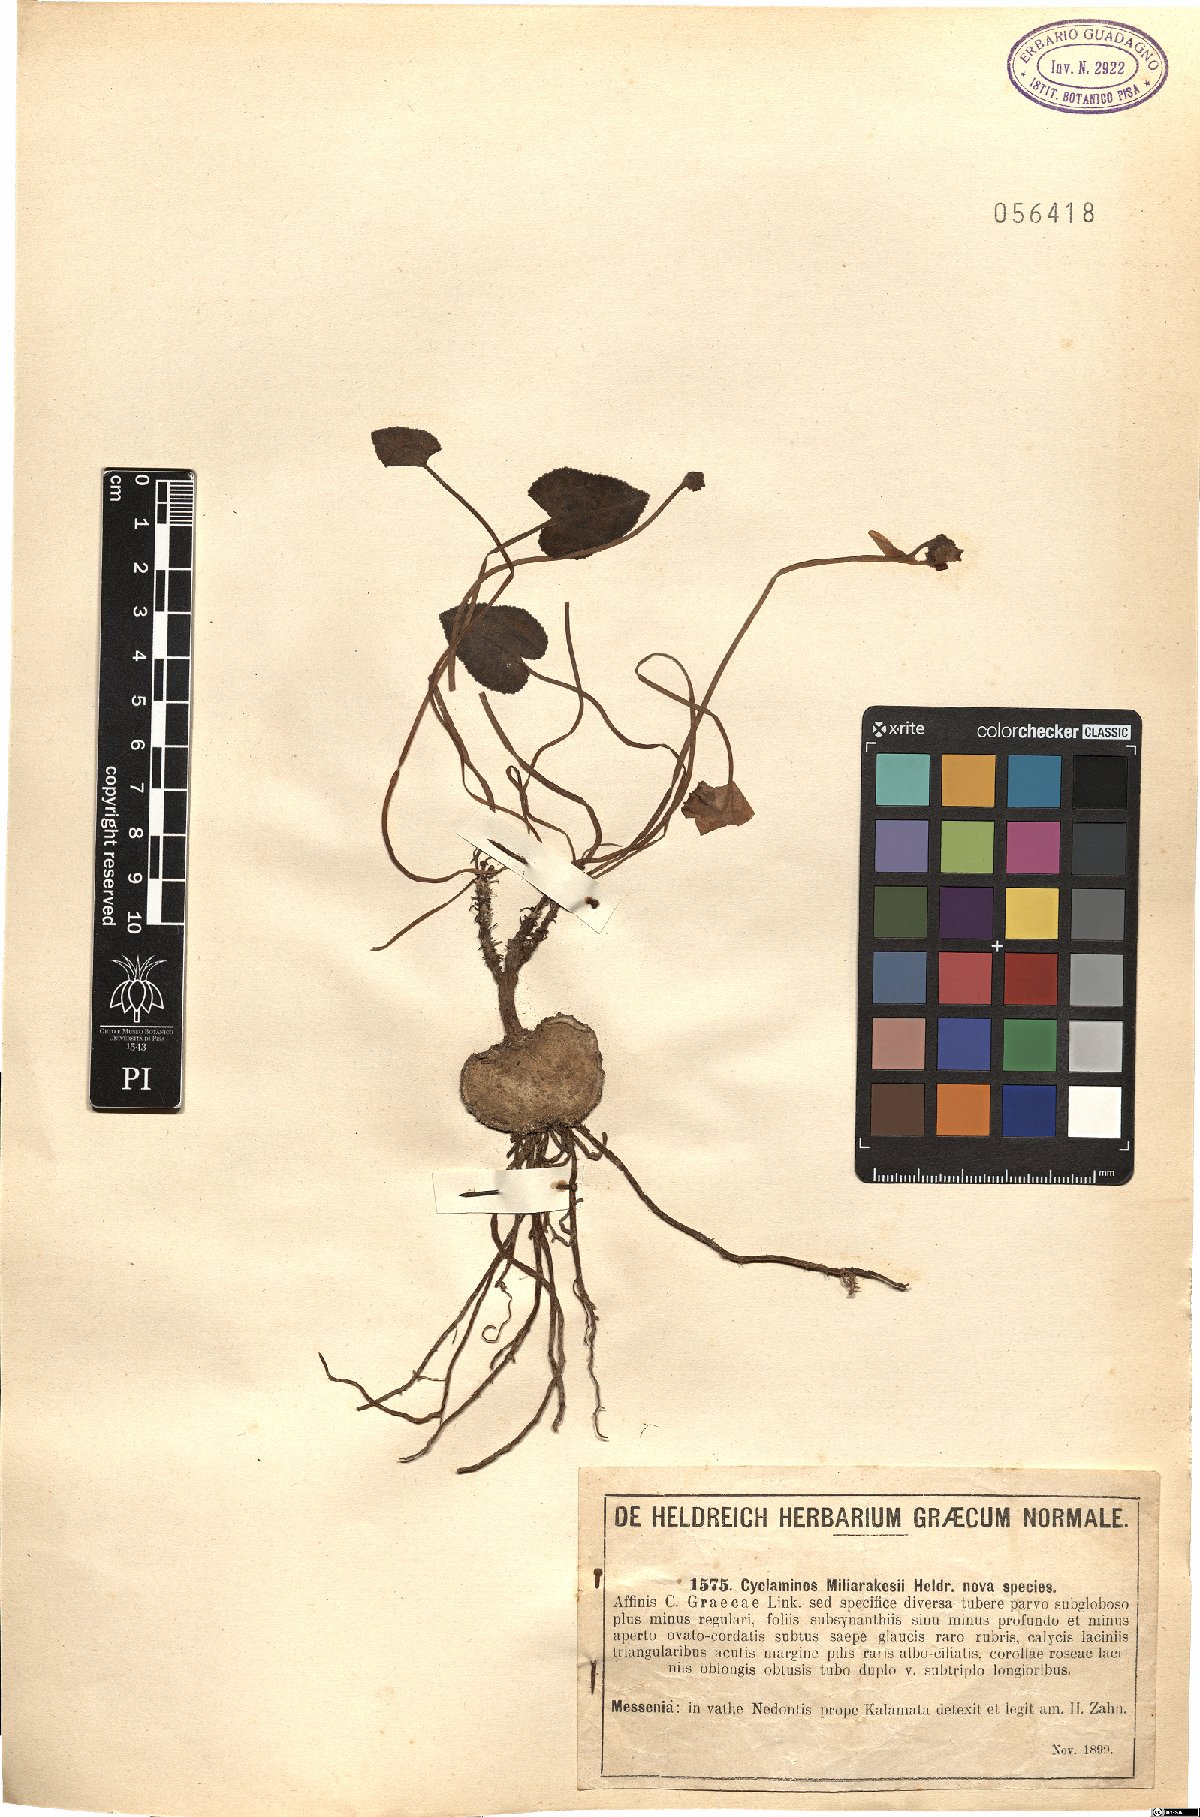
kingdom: Plantae
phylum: Tracheophyta
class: Magnoliopsida
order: Ericales
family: Primulaceae
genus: Cyclamen
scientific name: Cyclamen graecum
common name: Greek cyclamen
